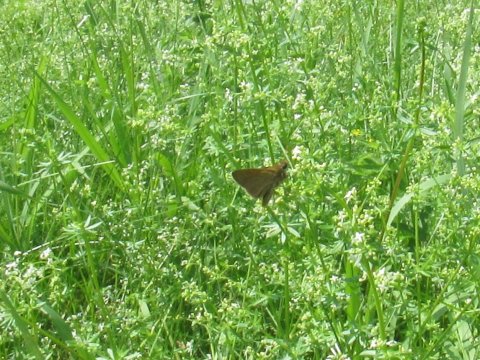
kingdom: Animalia
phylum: Arthropoda
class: Insecta
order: Lepidoptera
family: Hesperiidae
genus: Polites
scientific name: Polites themistocles
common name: Tawny-edged Skipper
